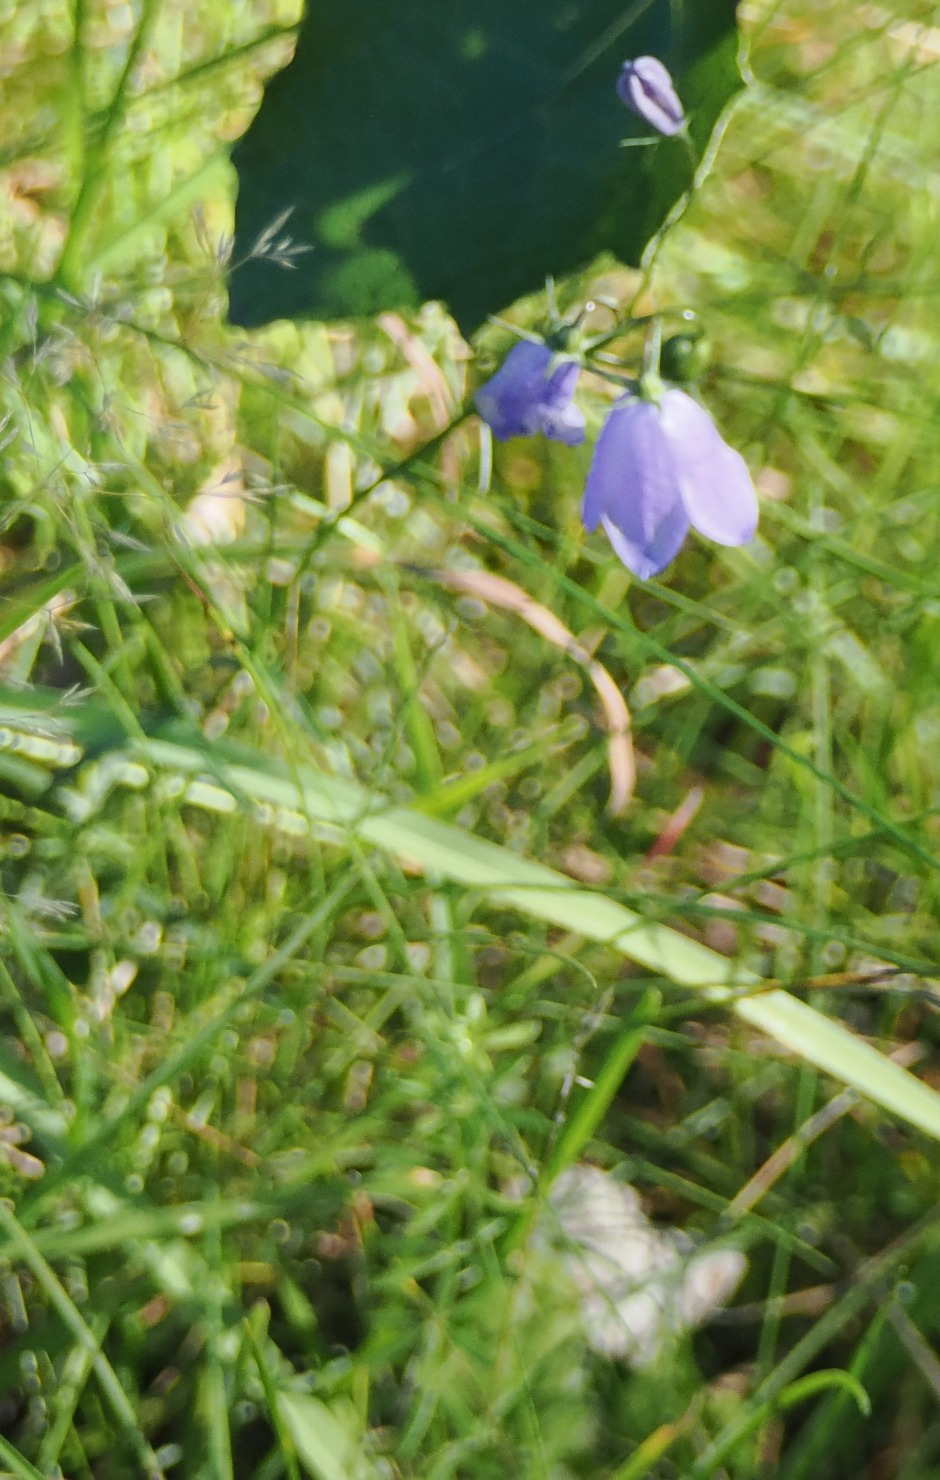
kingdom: Plantae
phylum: Tracheophyta
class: Magnoliopsida
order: Asterales
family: Campanulaceae
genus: Campanula
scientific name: Campanula rotundifolia
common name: Liden klokke
